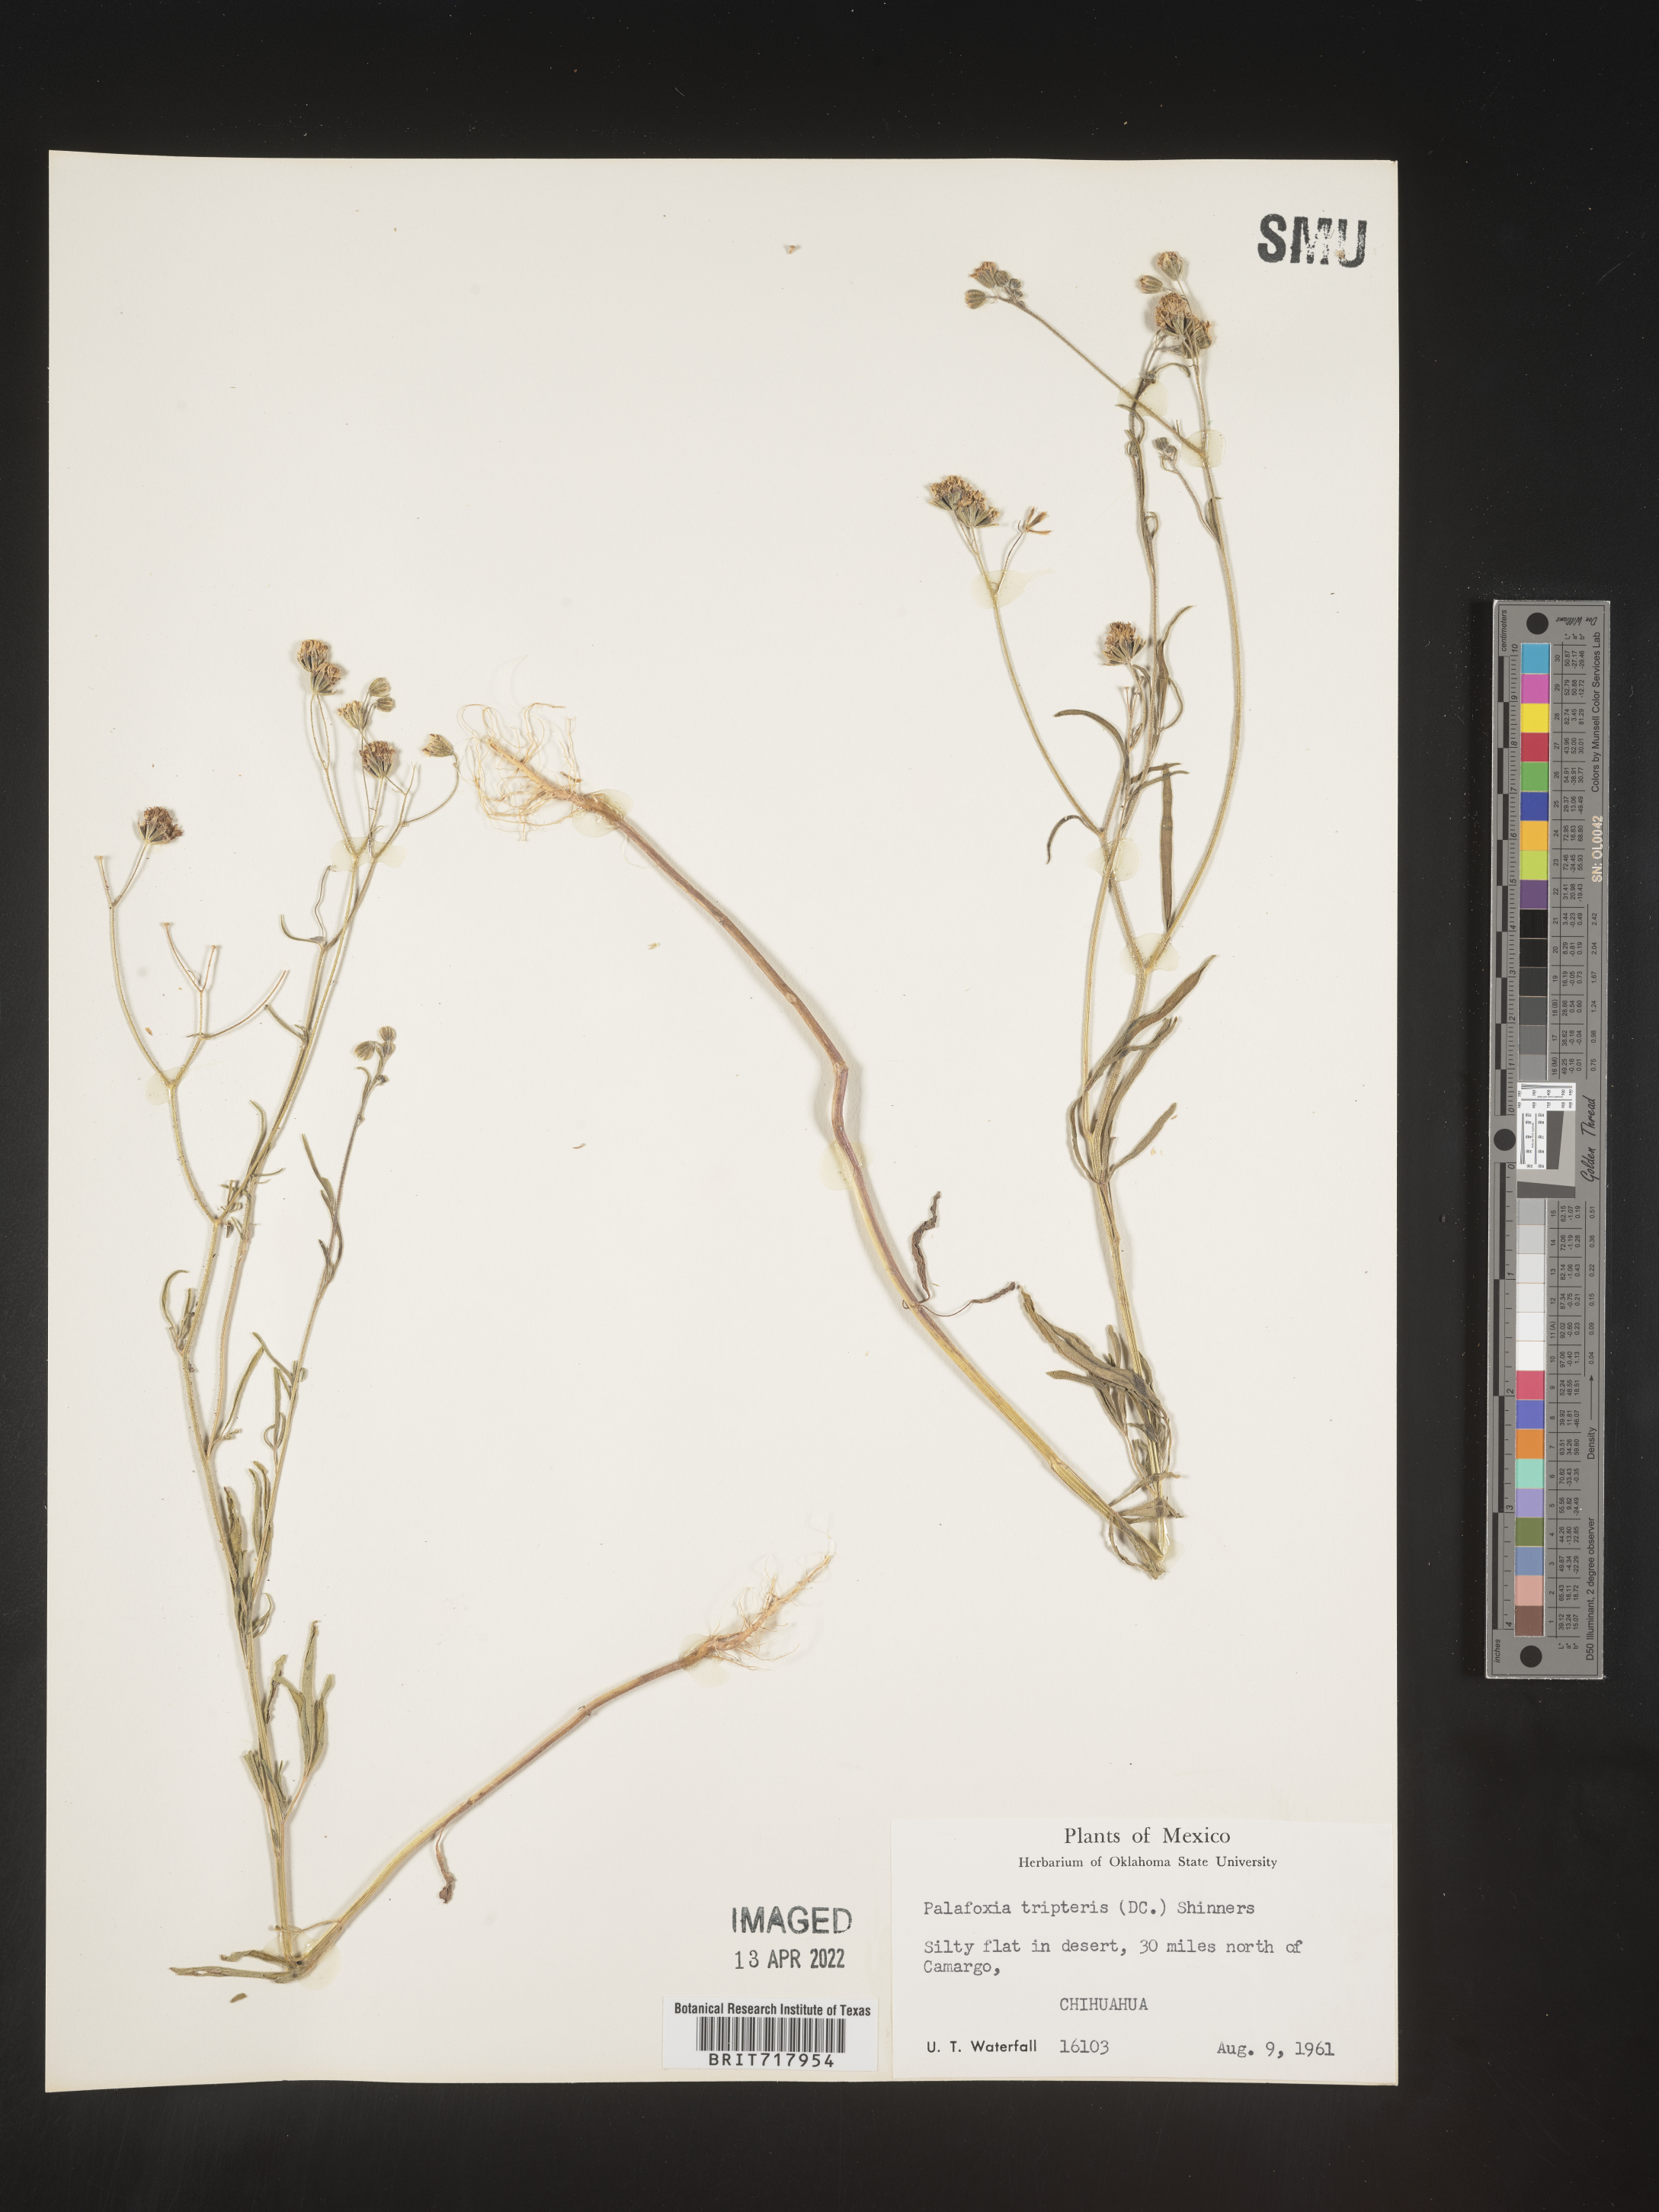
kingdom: Plantae
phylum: Tracheophyta
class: Magnoliopsida
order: Asterales
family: Asteraceae
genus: Florestina
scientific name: Florestina
